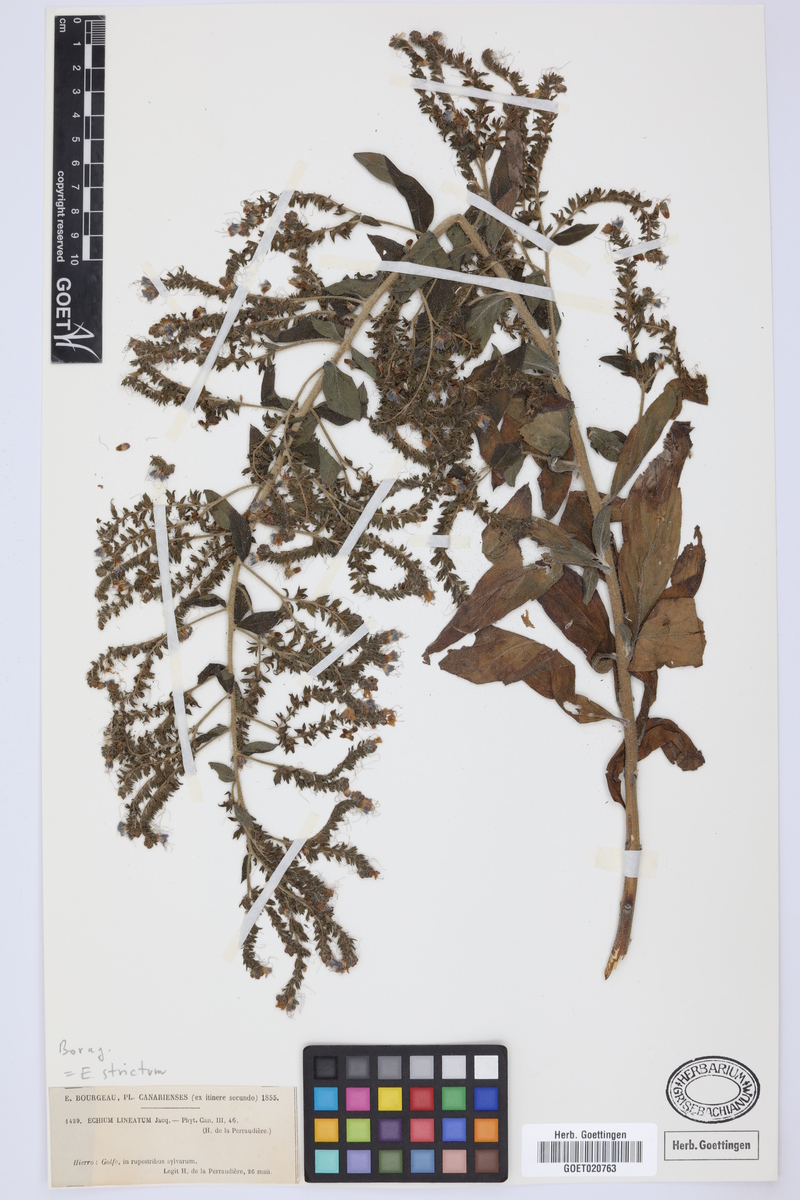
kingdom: Plantae
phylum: Tracheophyta
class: Magnoliopsida
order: Boraginales
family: Boraginaceae
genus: Echium
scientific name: Echium strictum
